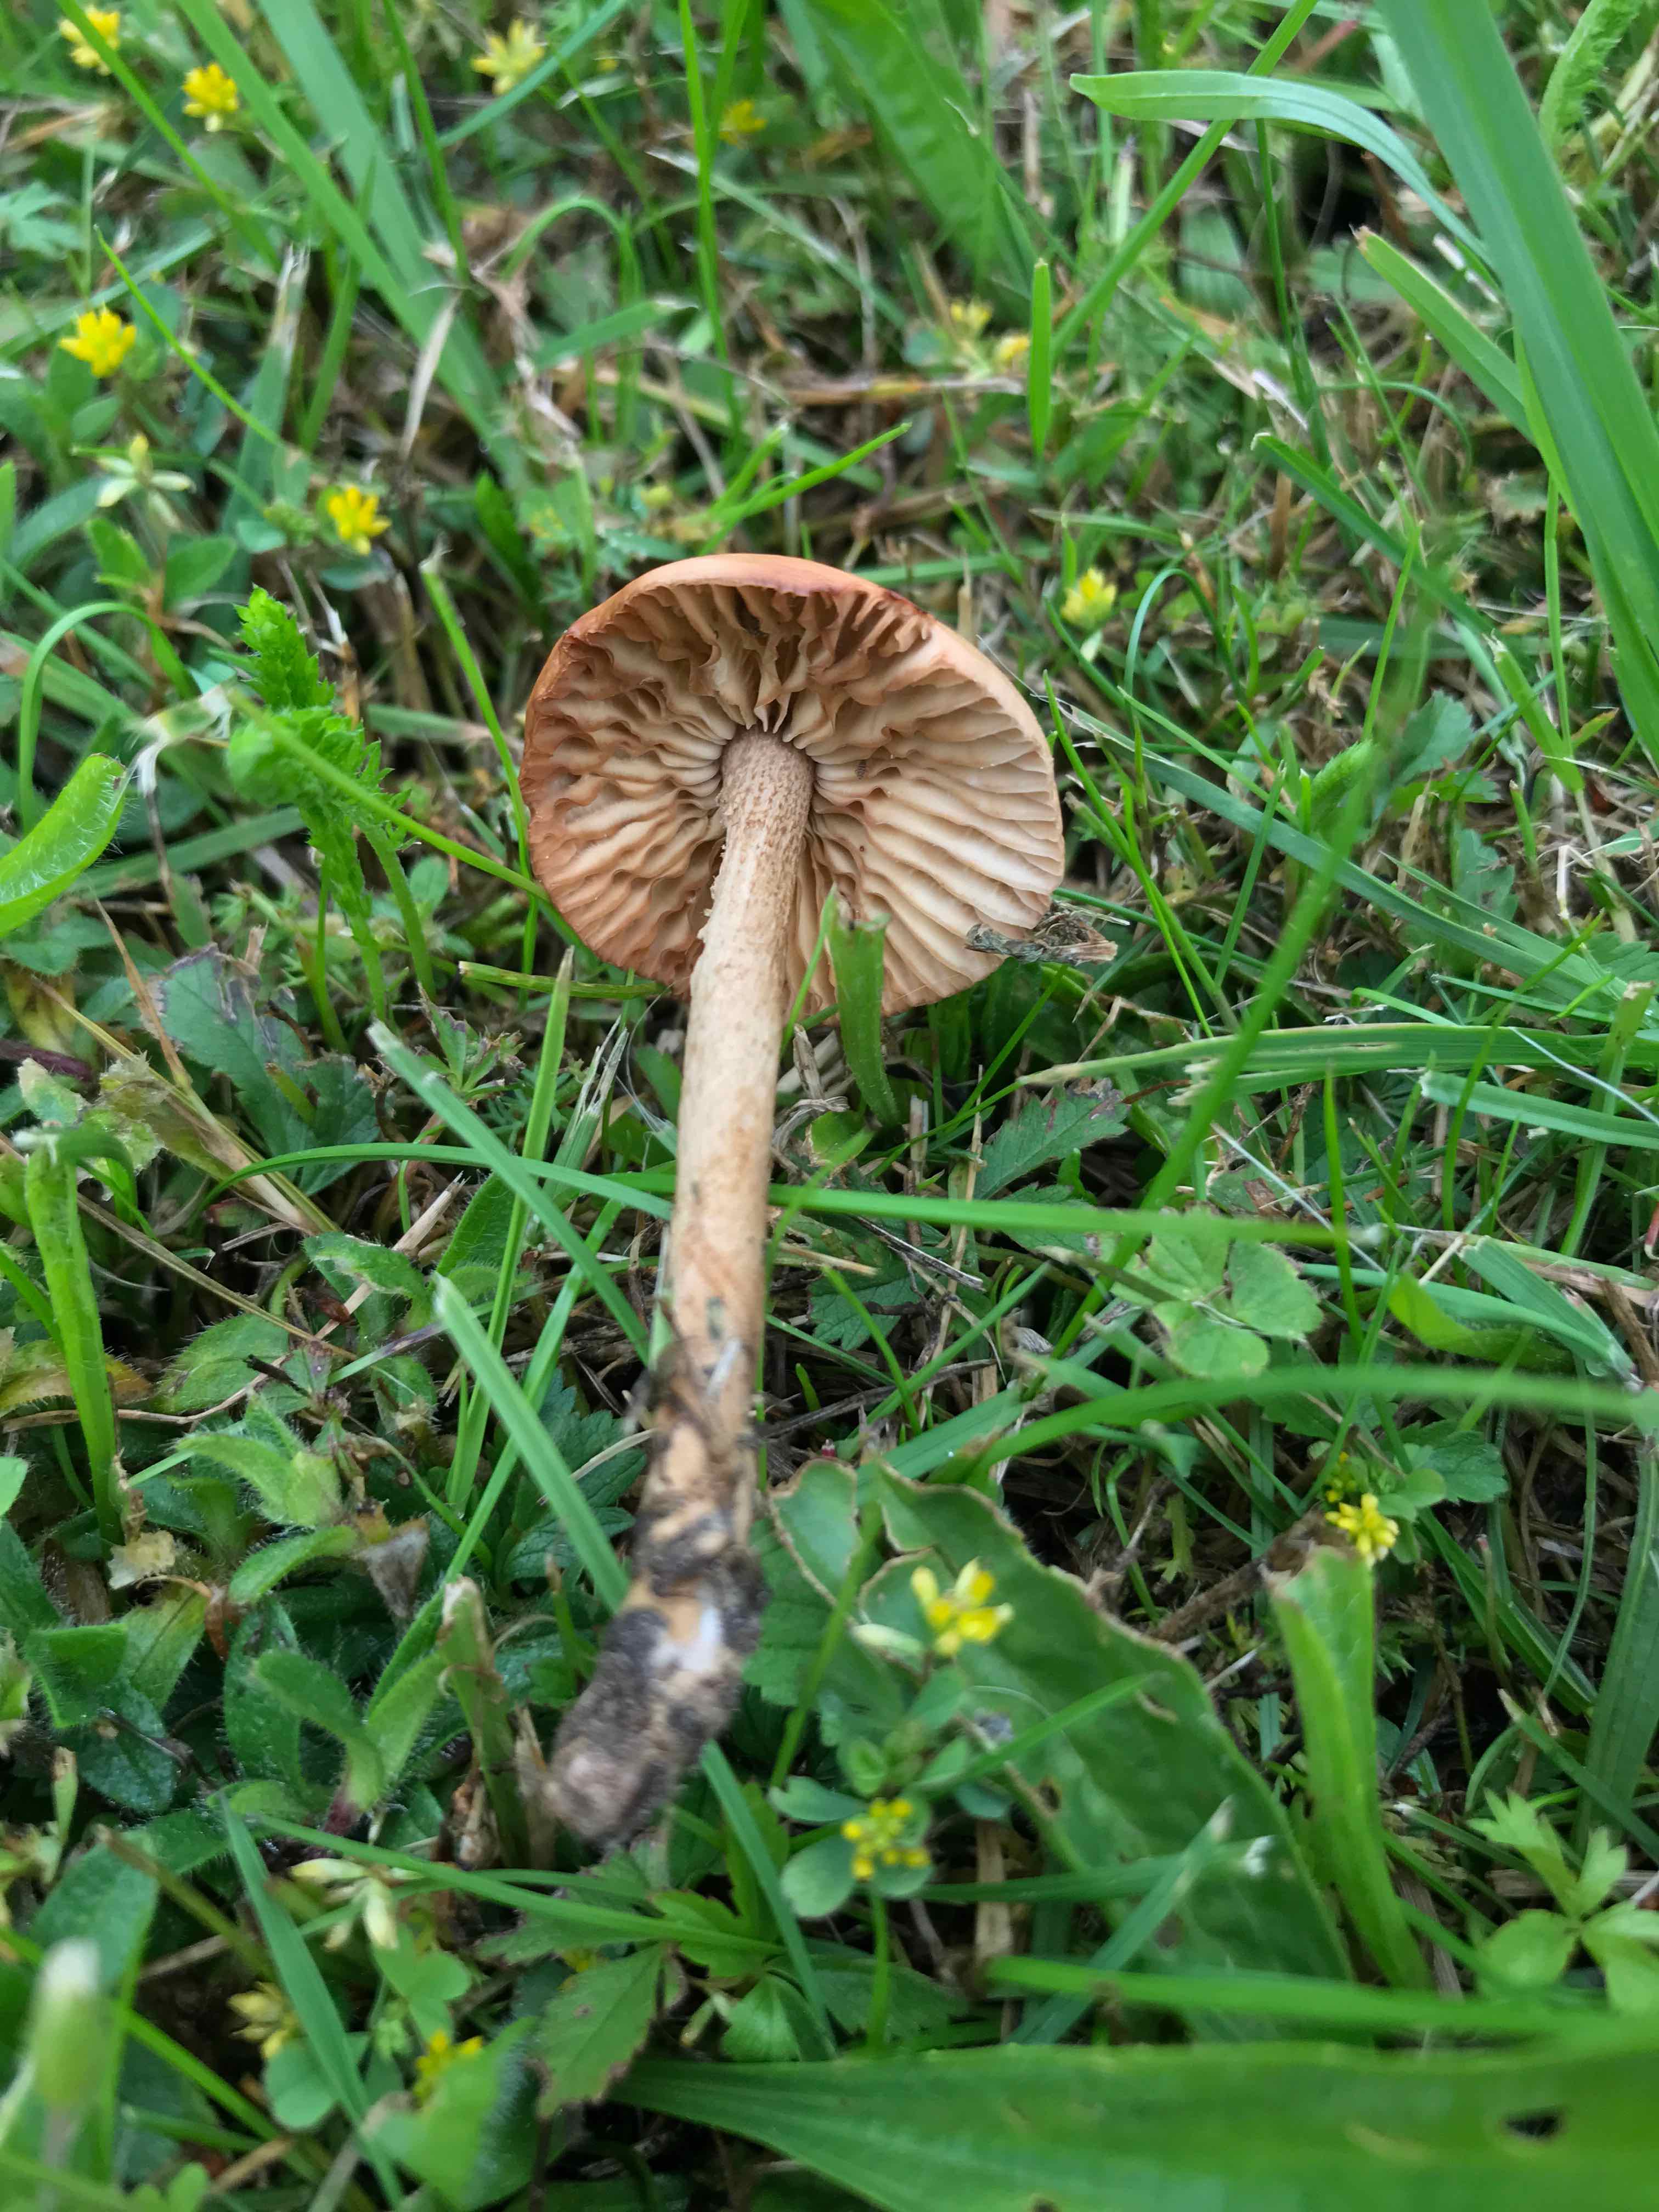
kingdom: Fungi
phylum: Basidiomycota
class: Agaricomycetes
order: Agaricales
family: Marasmiaceae
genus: Marasmius
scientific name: Marasmius oreades
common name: elledans-bruskhat
